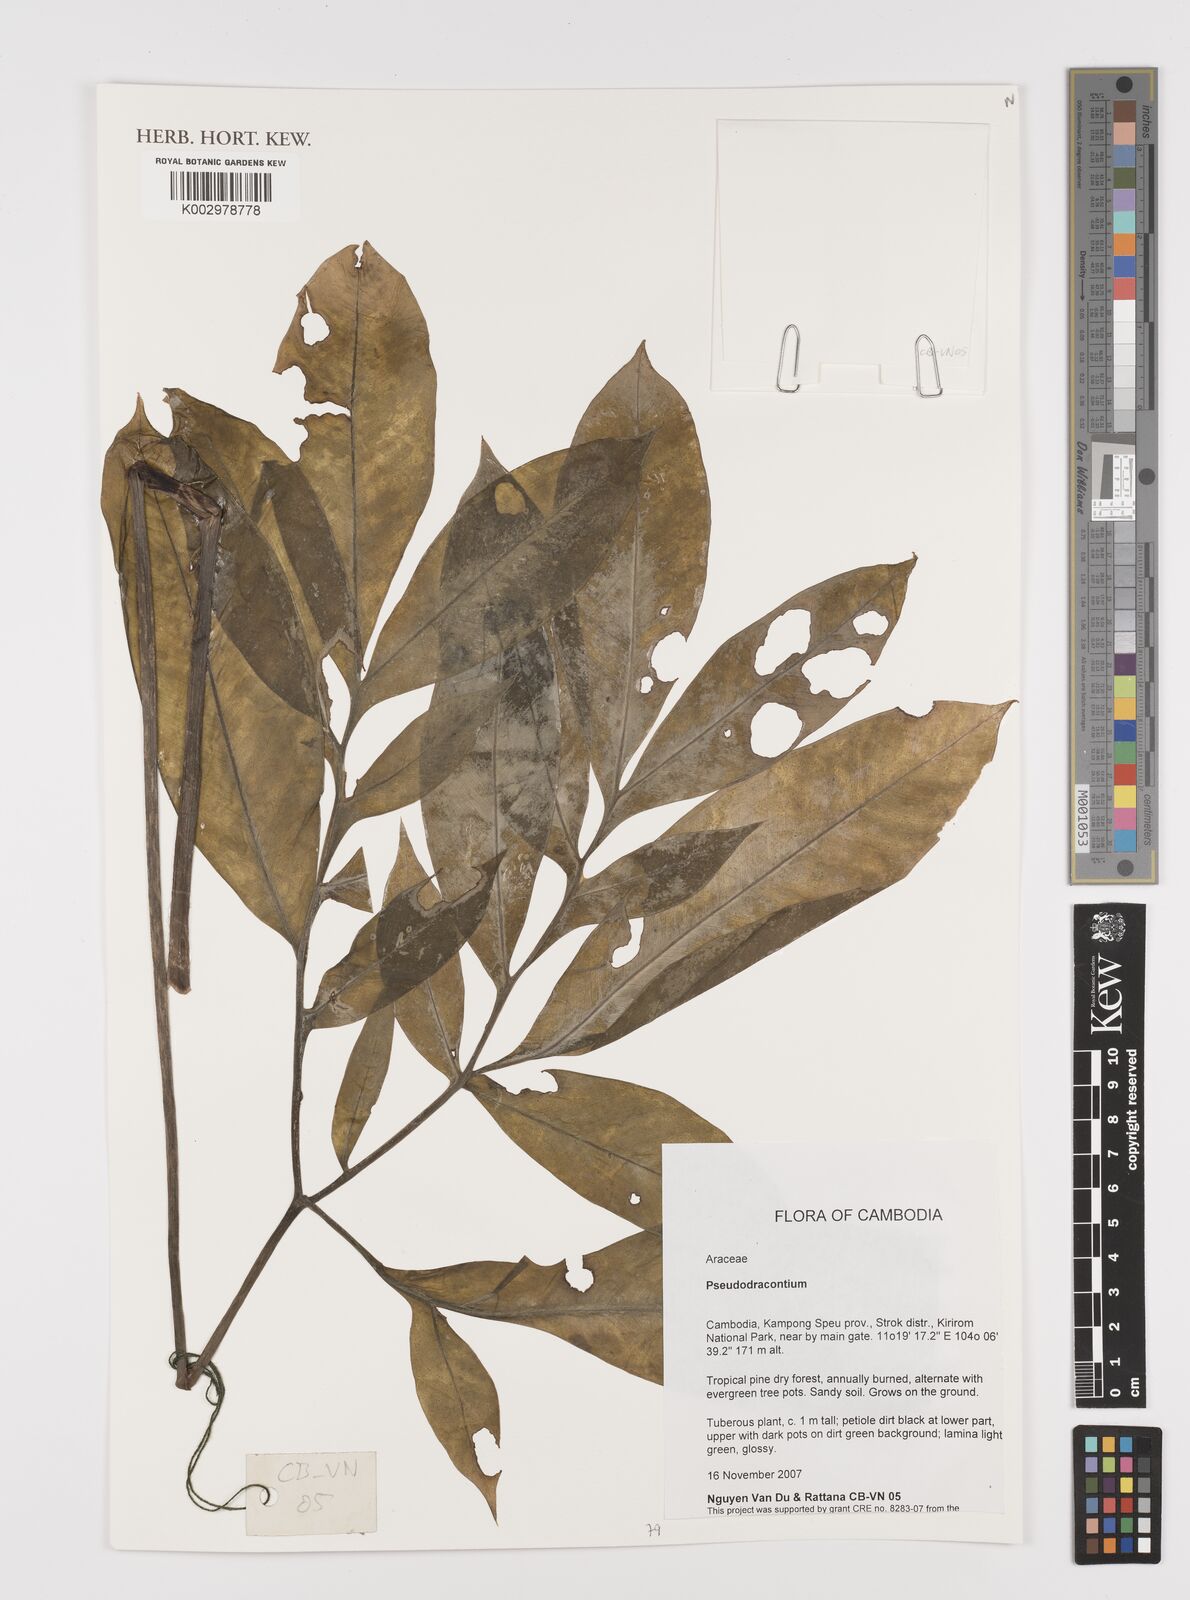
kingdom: Plantae
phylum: Tracheophyta
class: Liliopsida
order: Alismatales
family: Araceae
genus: Amorphophallus
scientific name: Amorphophallus
